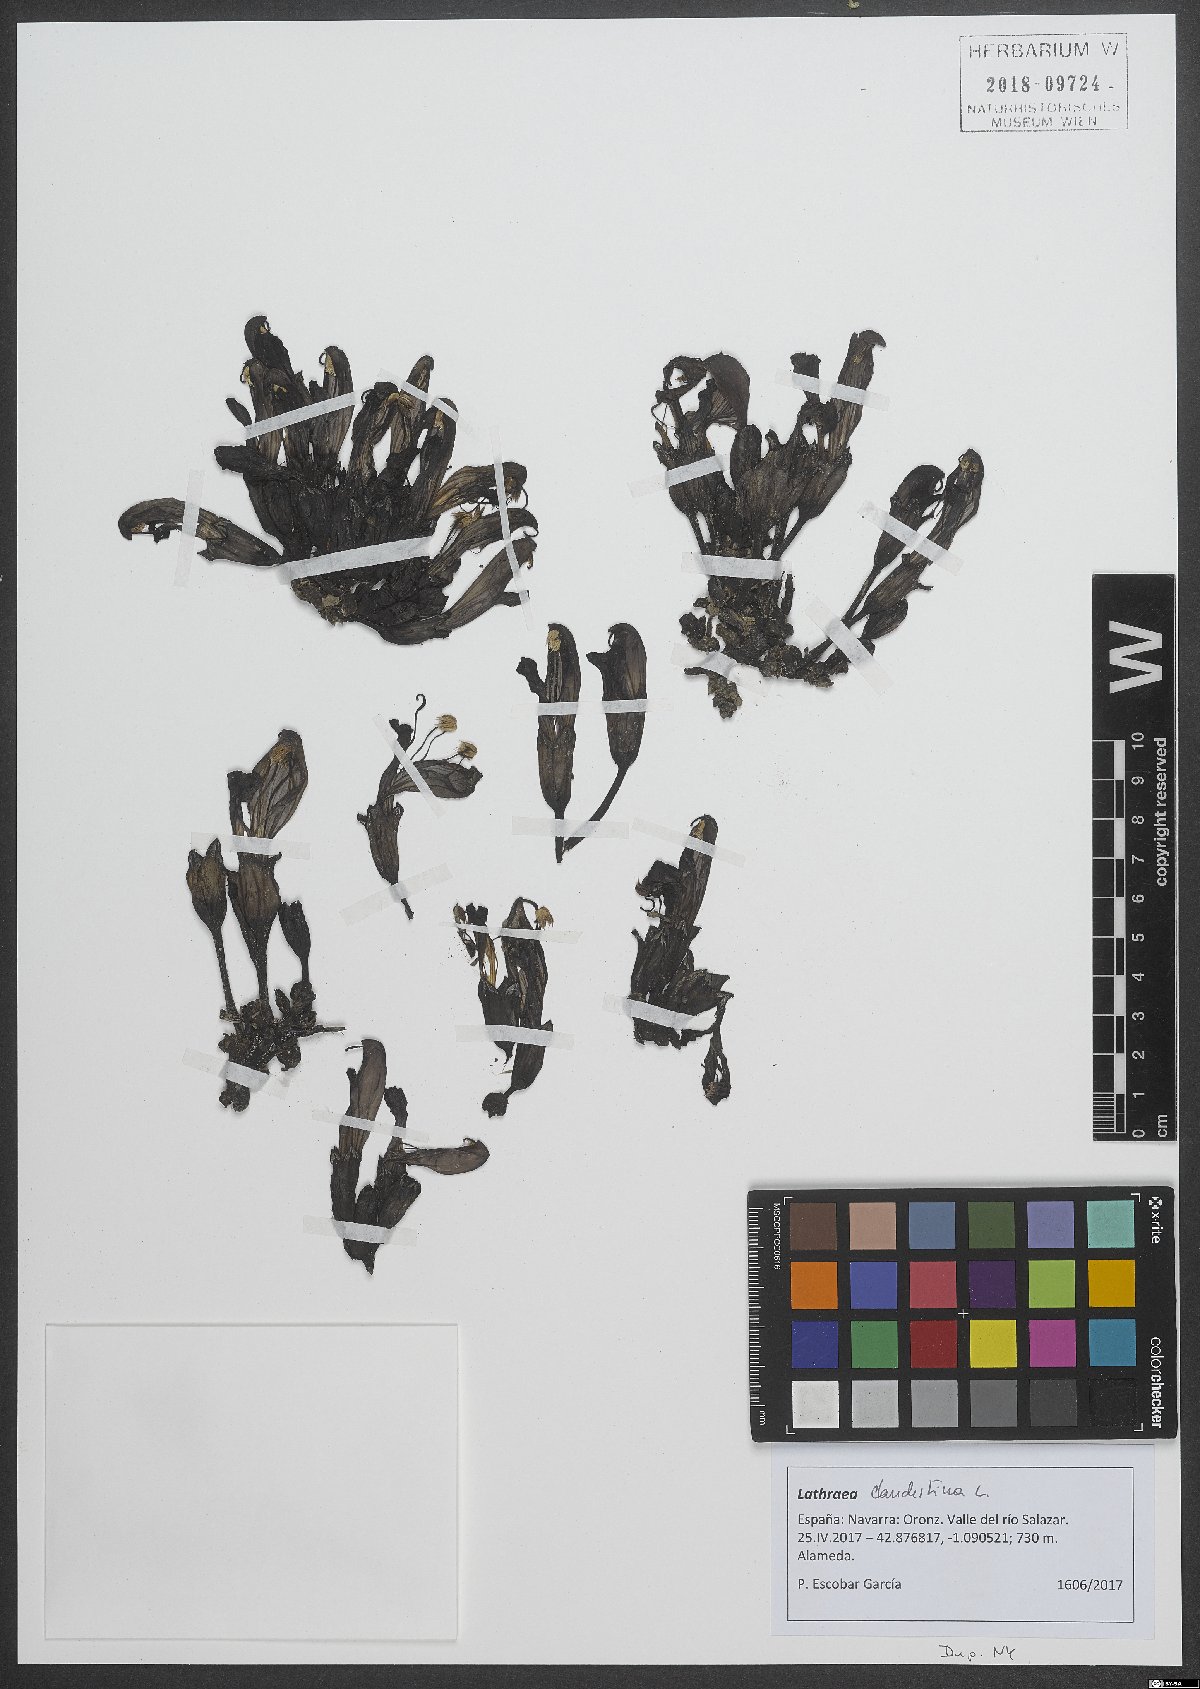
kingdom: Plantae
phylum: Tracheophyta
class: Magnoliopsida
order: Lamiales
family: Orobanchaceae
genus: Lathraea
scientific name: Lathraea clandestina
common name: Purple toothwort
